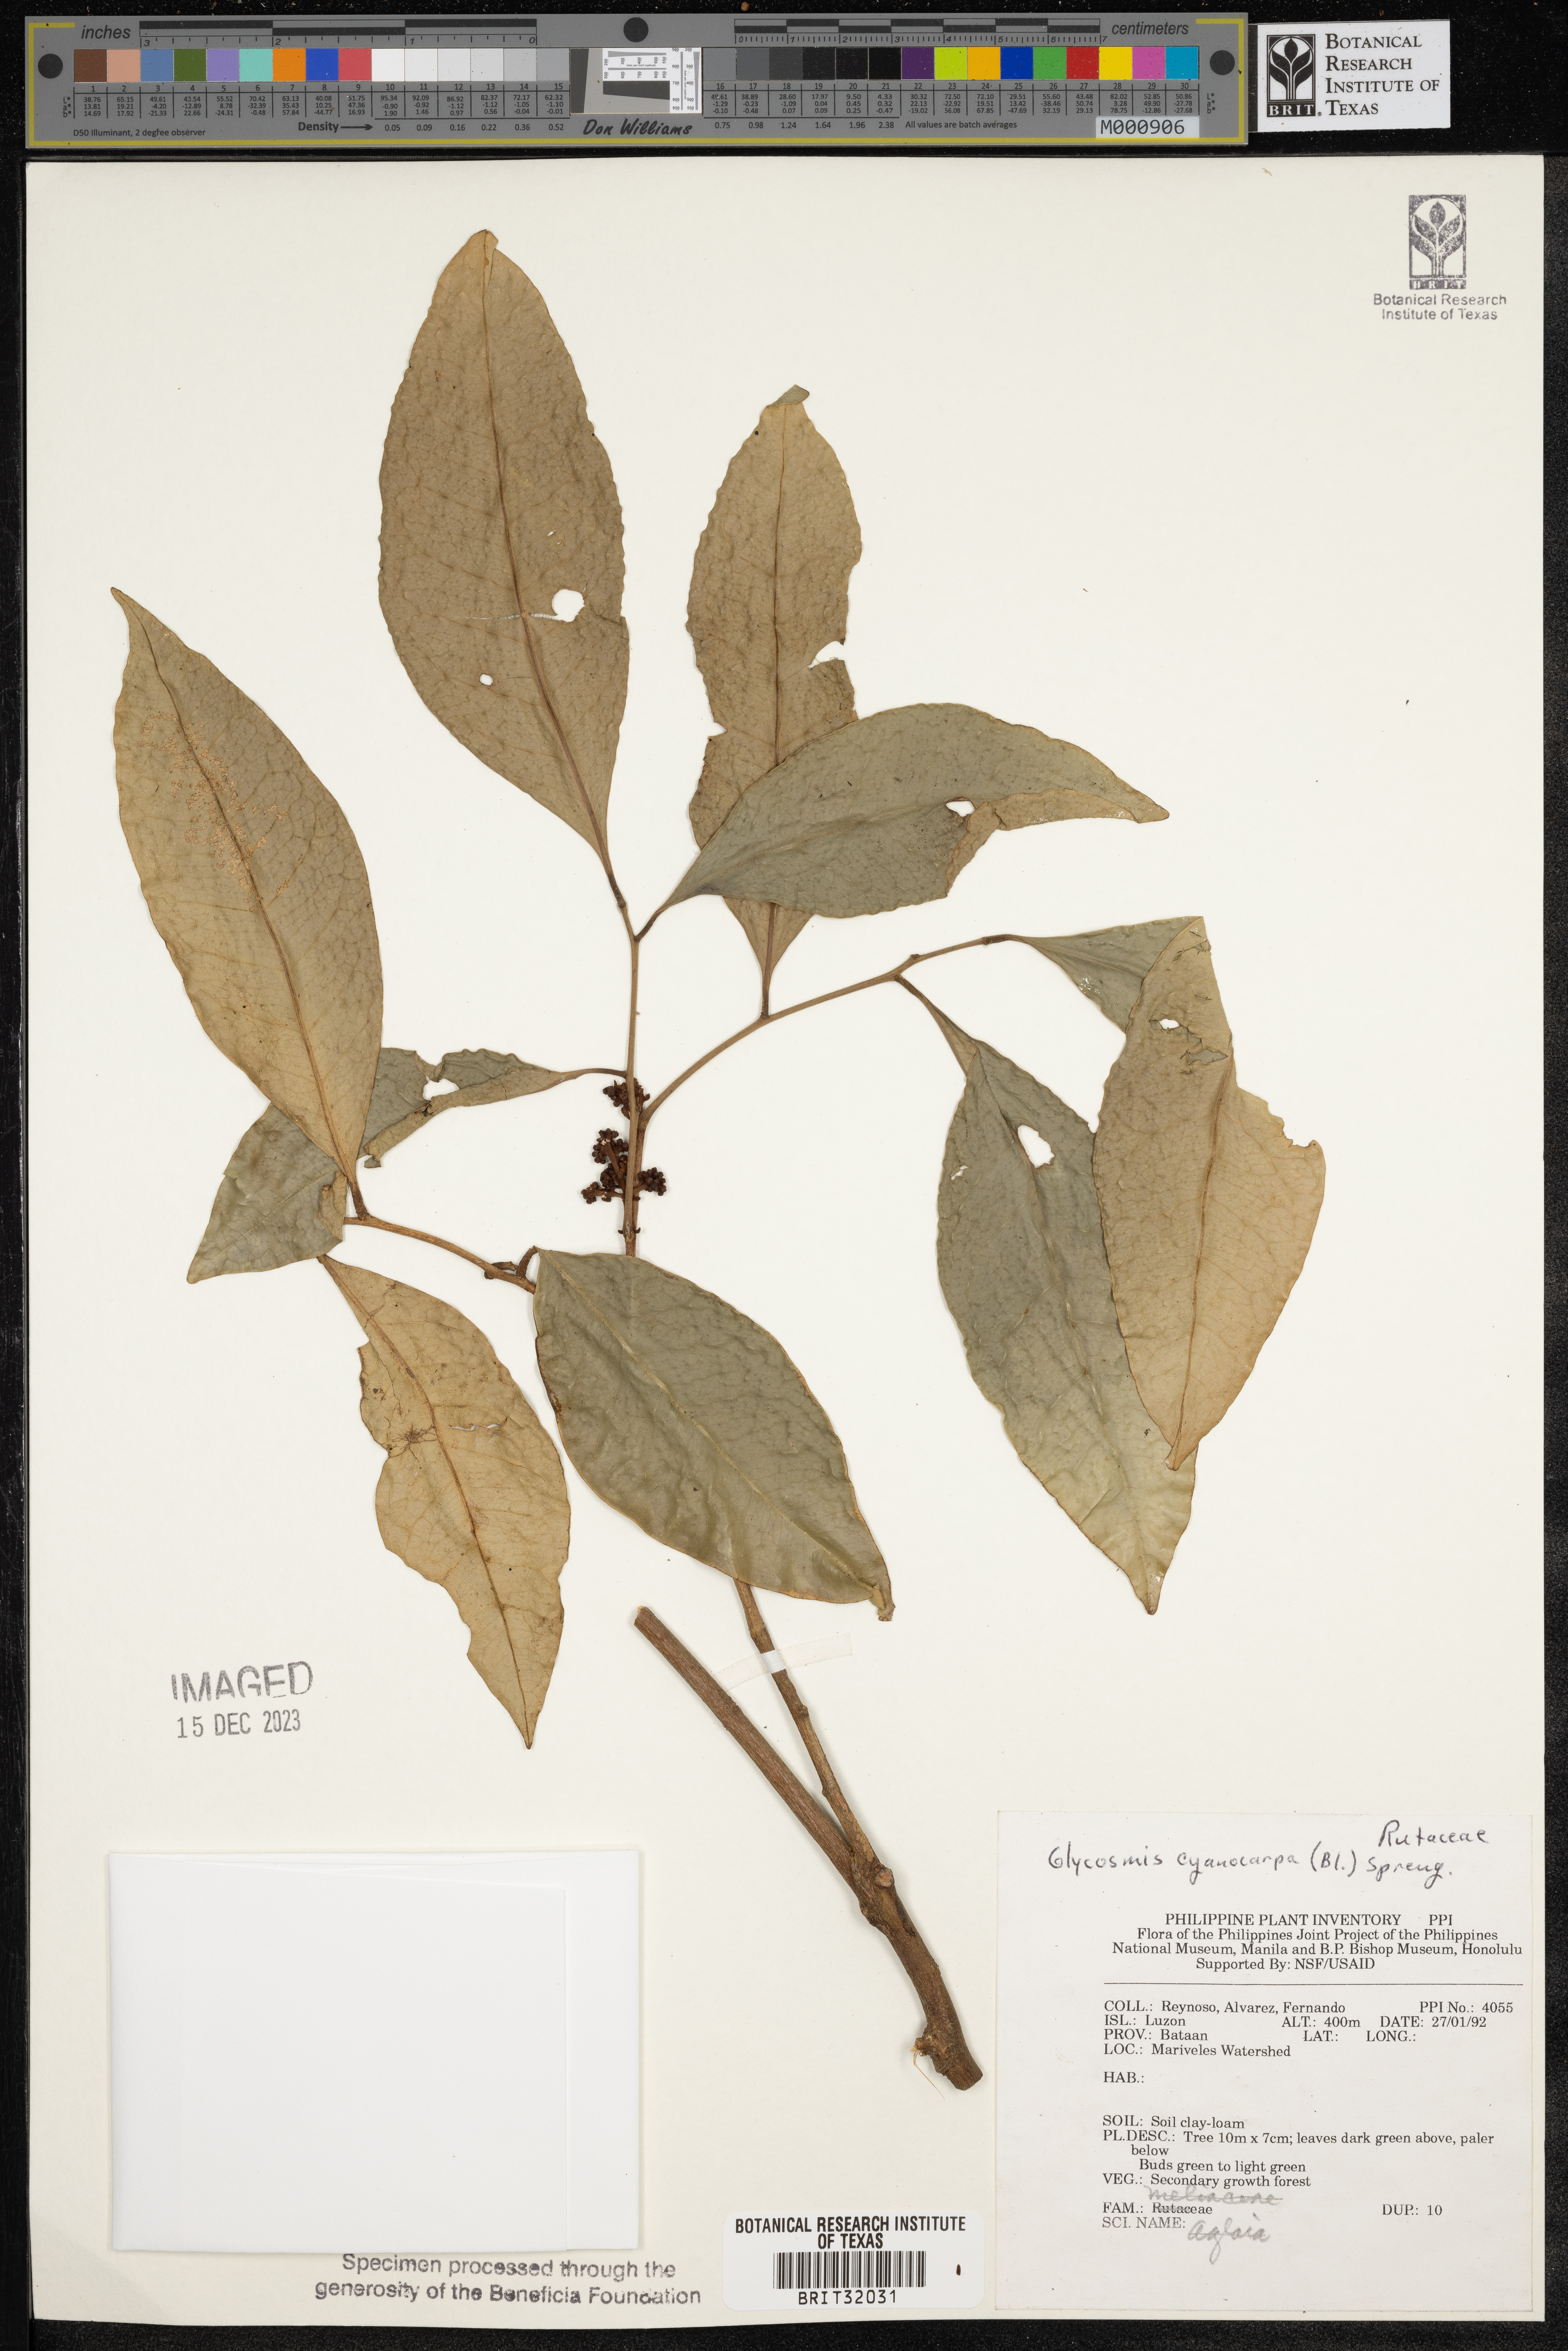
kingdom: Plantae
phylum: Tracheophyta
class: Magnoliopsida
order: Sapindales
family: Rutaceae
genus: Glycosmis
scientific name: Glycosmis cyanocarpa
